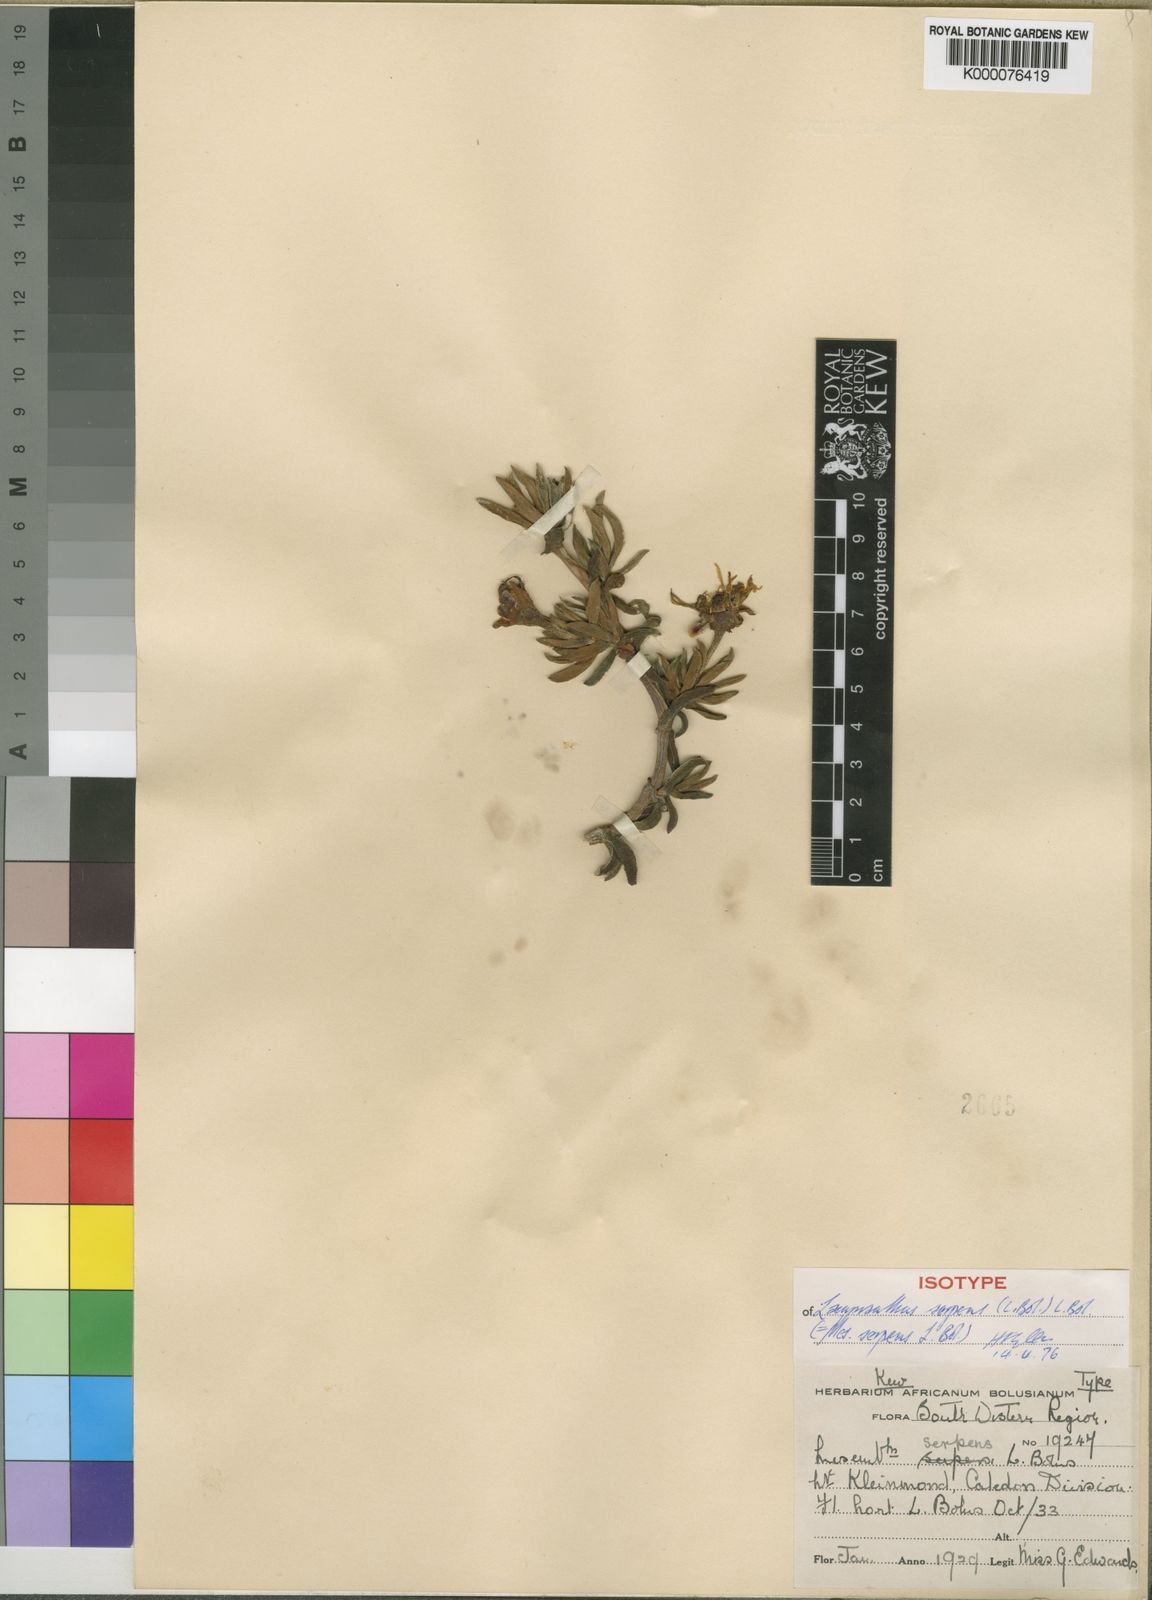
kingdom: Plantae
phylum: Tracheophyta
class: Magnoliopsida
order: Caryophyllales
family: Aizoaceae
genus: Lampranthus
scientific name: Lampranthus serpens
